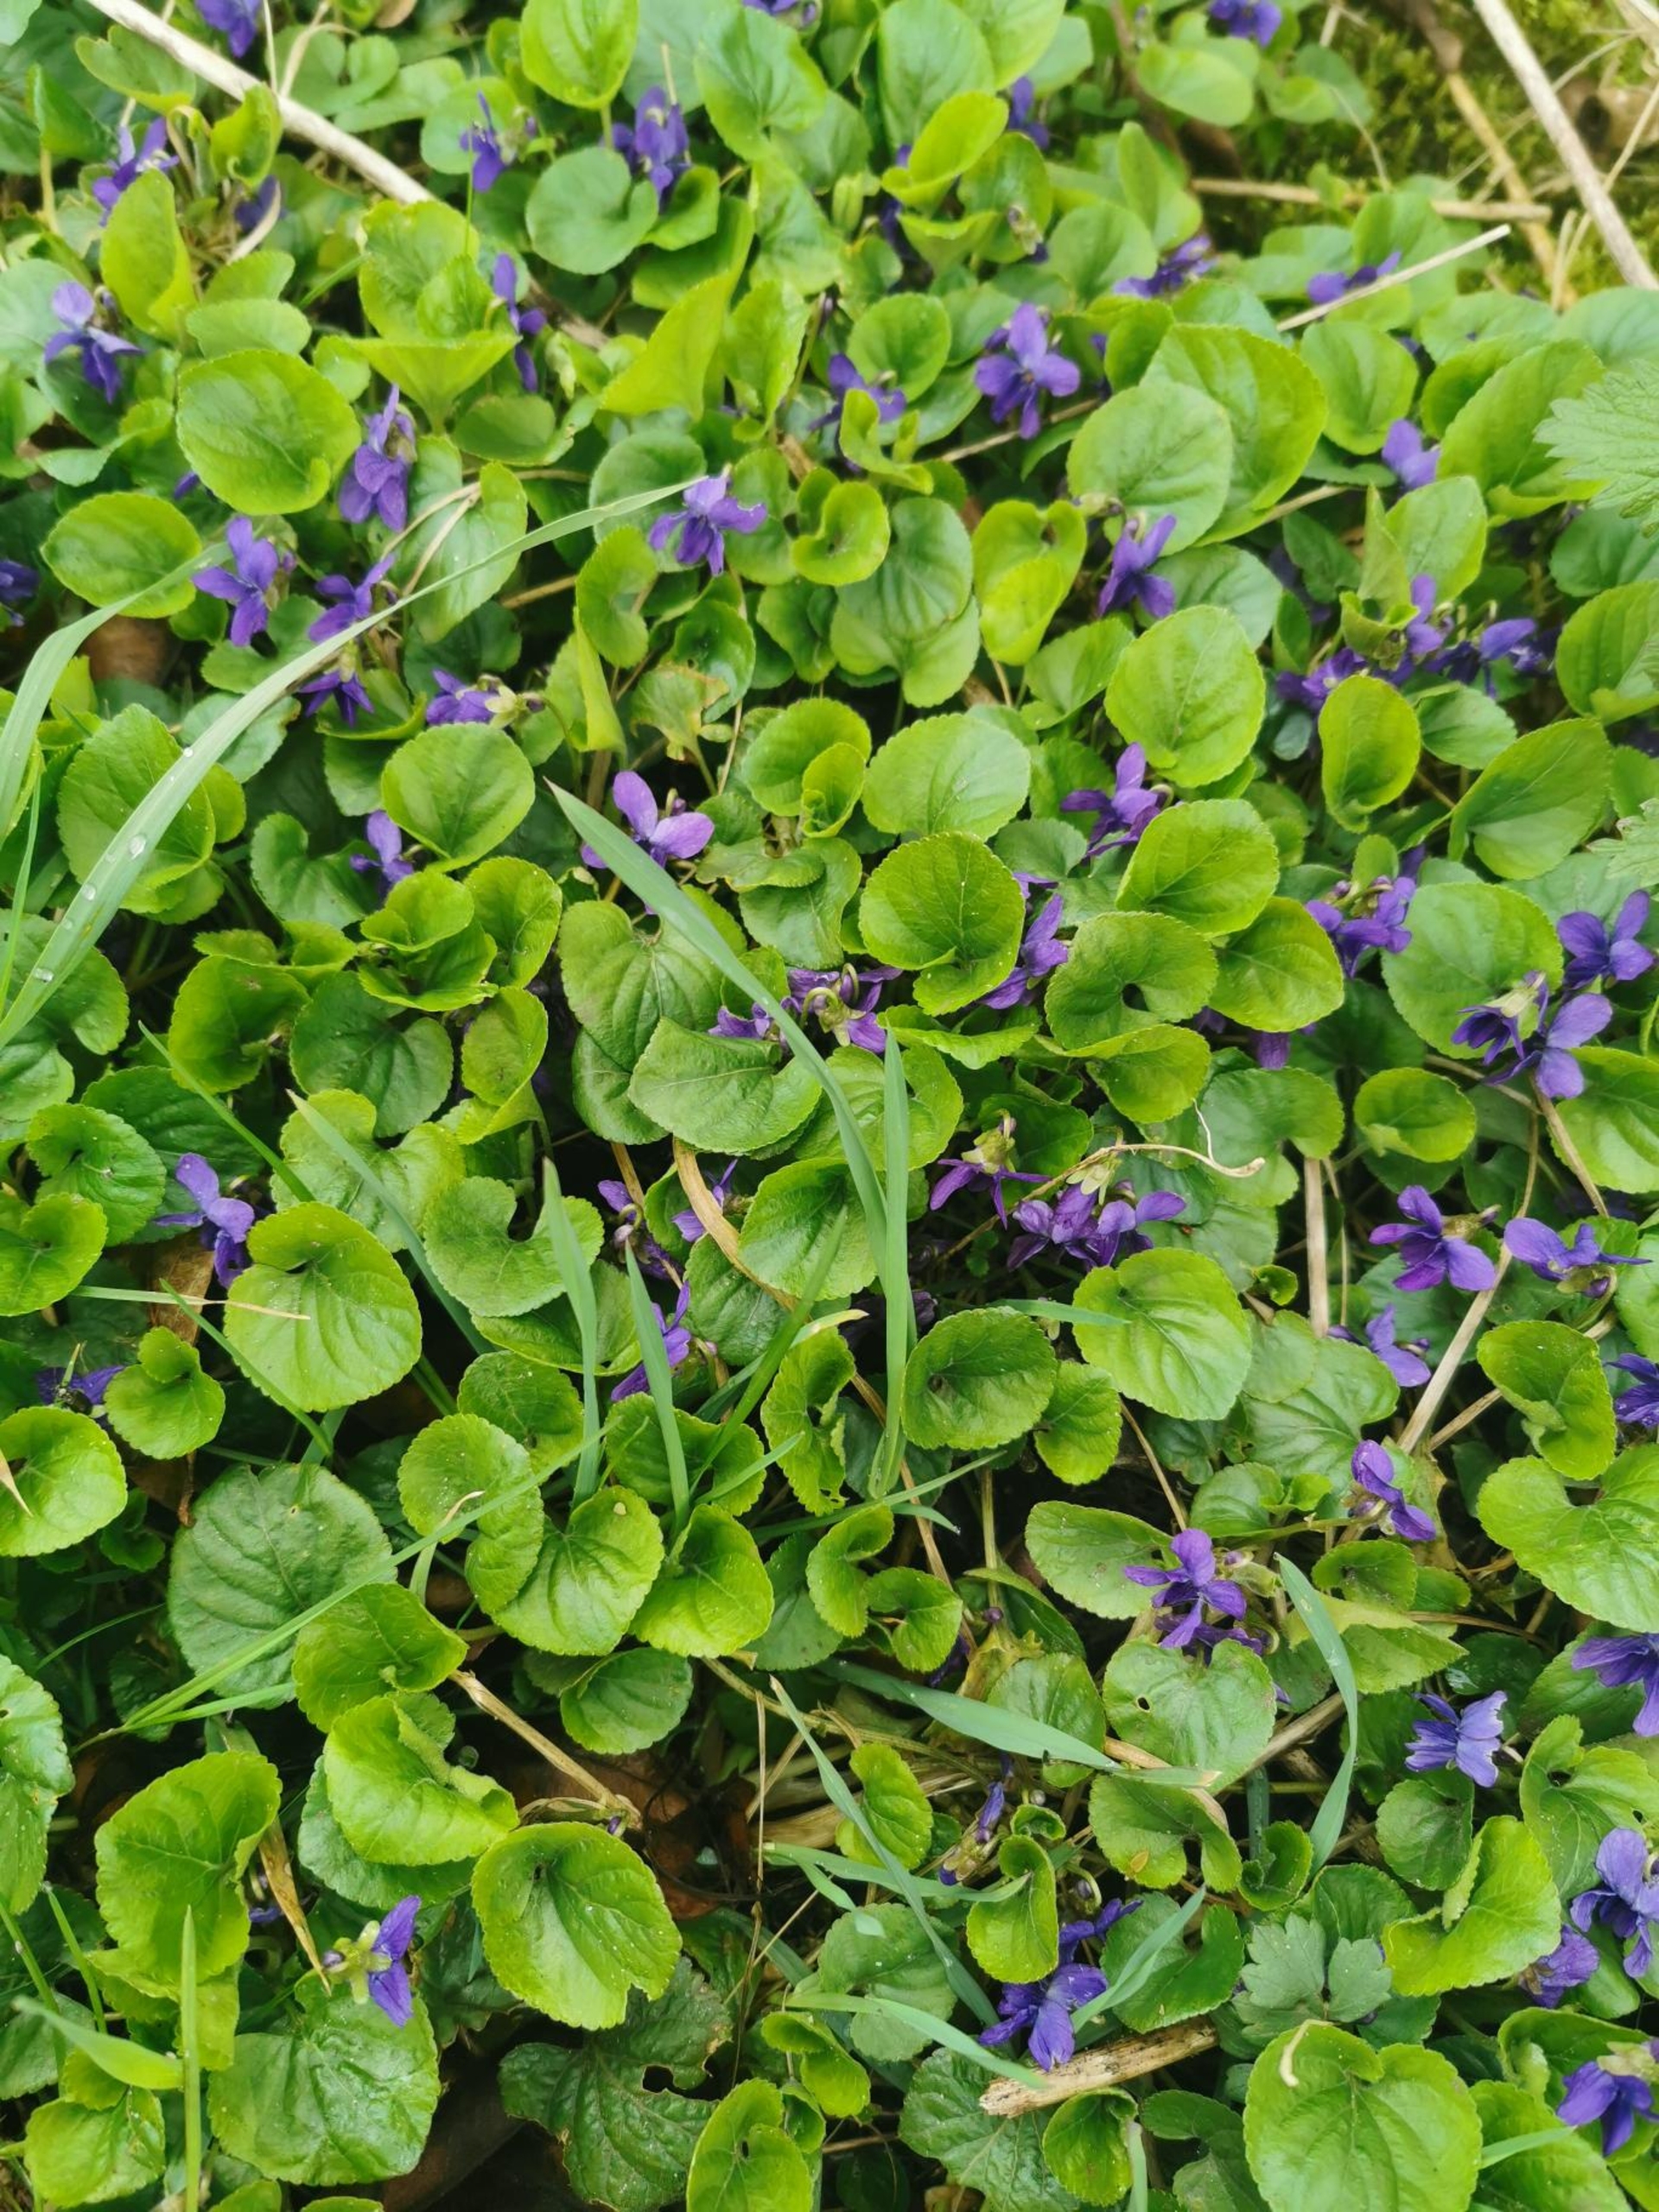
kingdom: Animalia
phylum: Chordata
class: Aves
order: Suliformes
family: Phalacrocoracidae
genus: Phalacrocorax
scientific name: Phalacrocorax carbo
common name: Skarv
